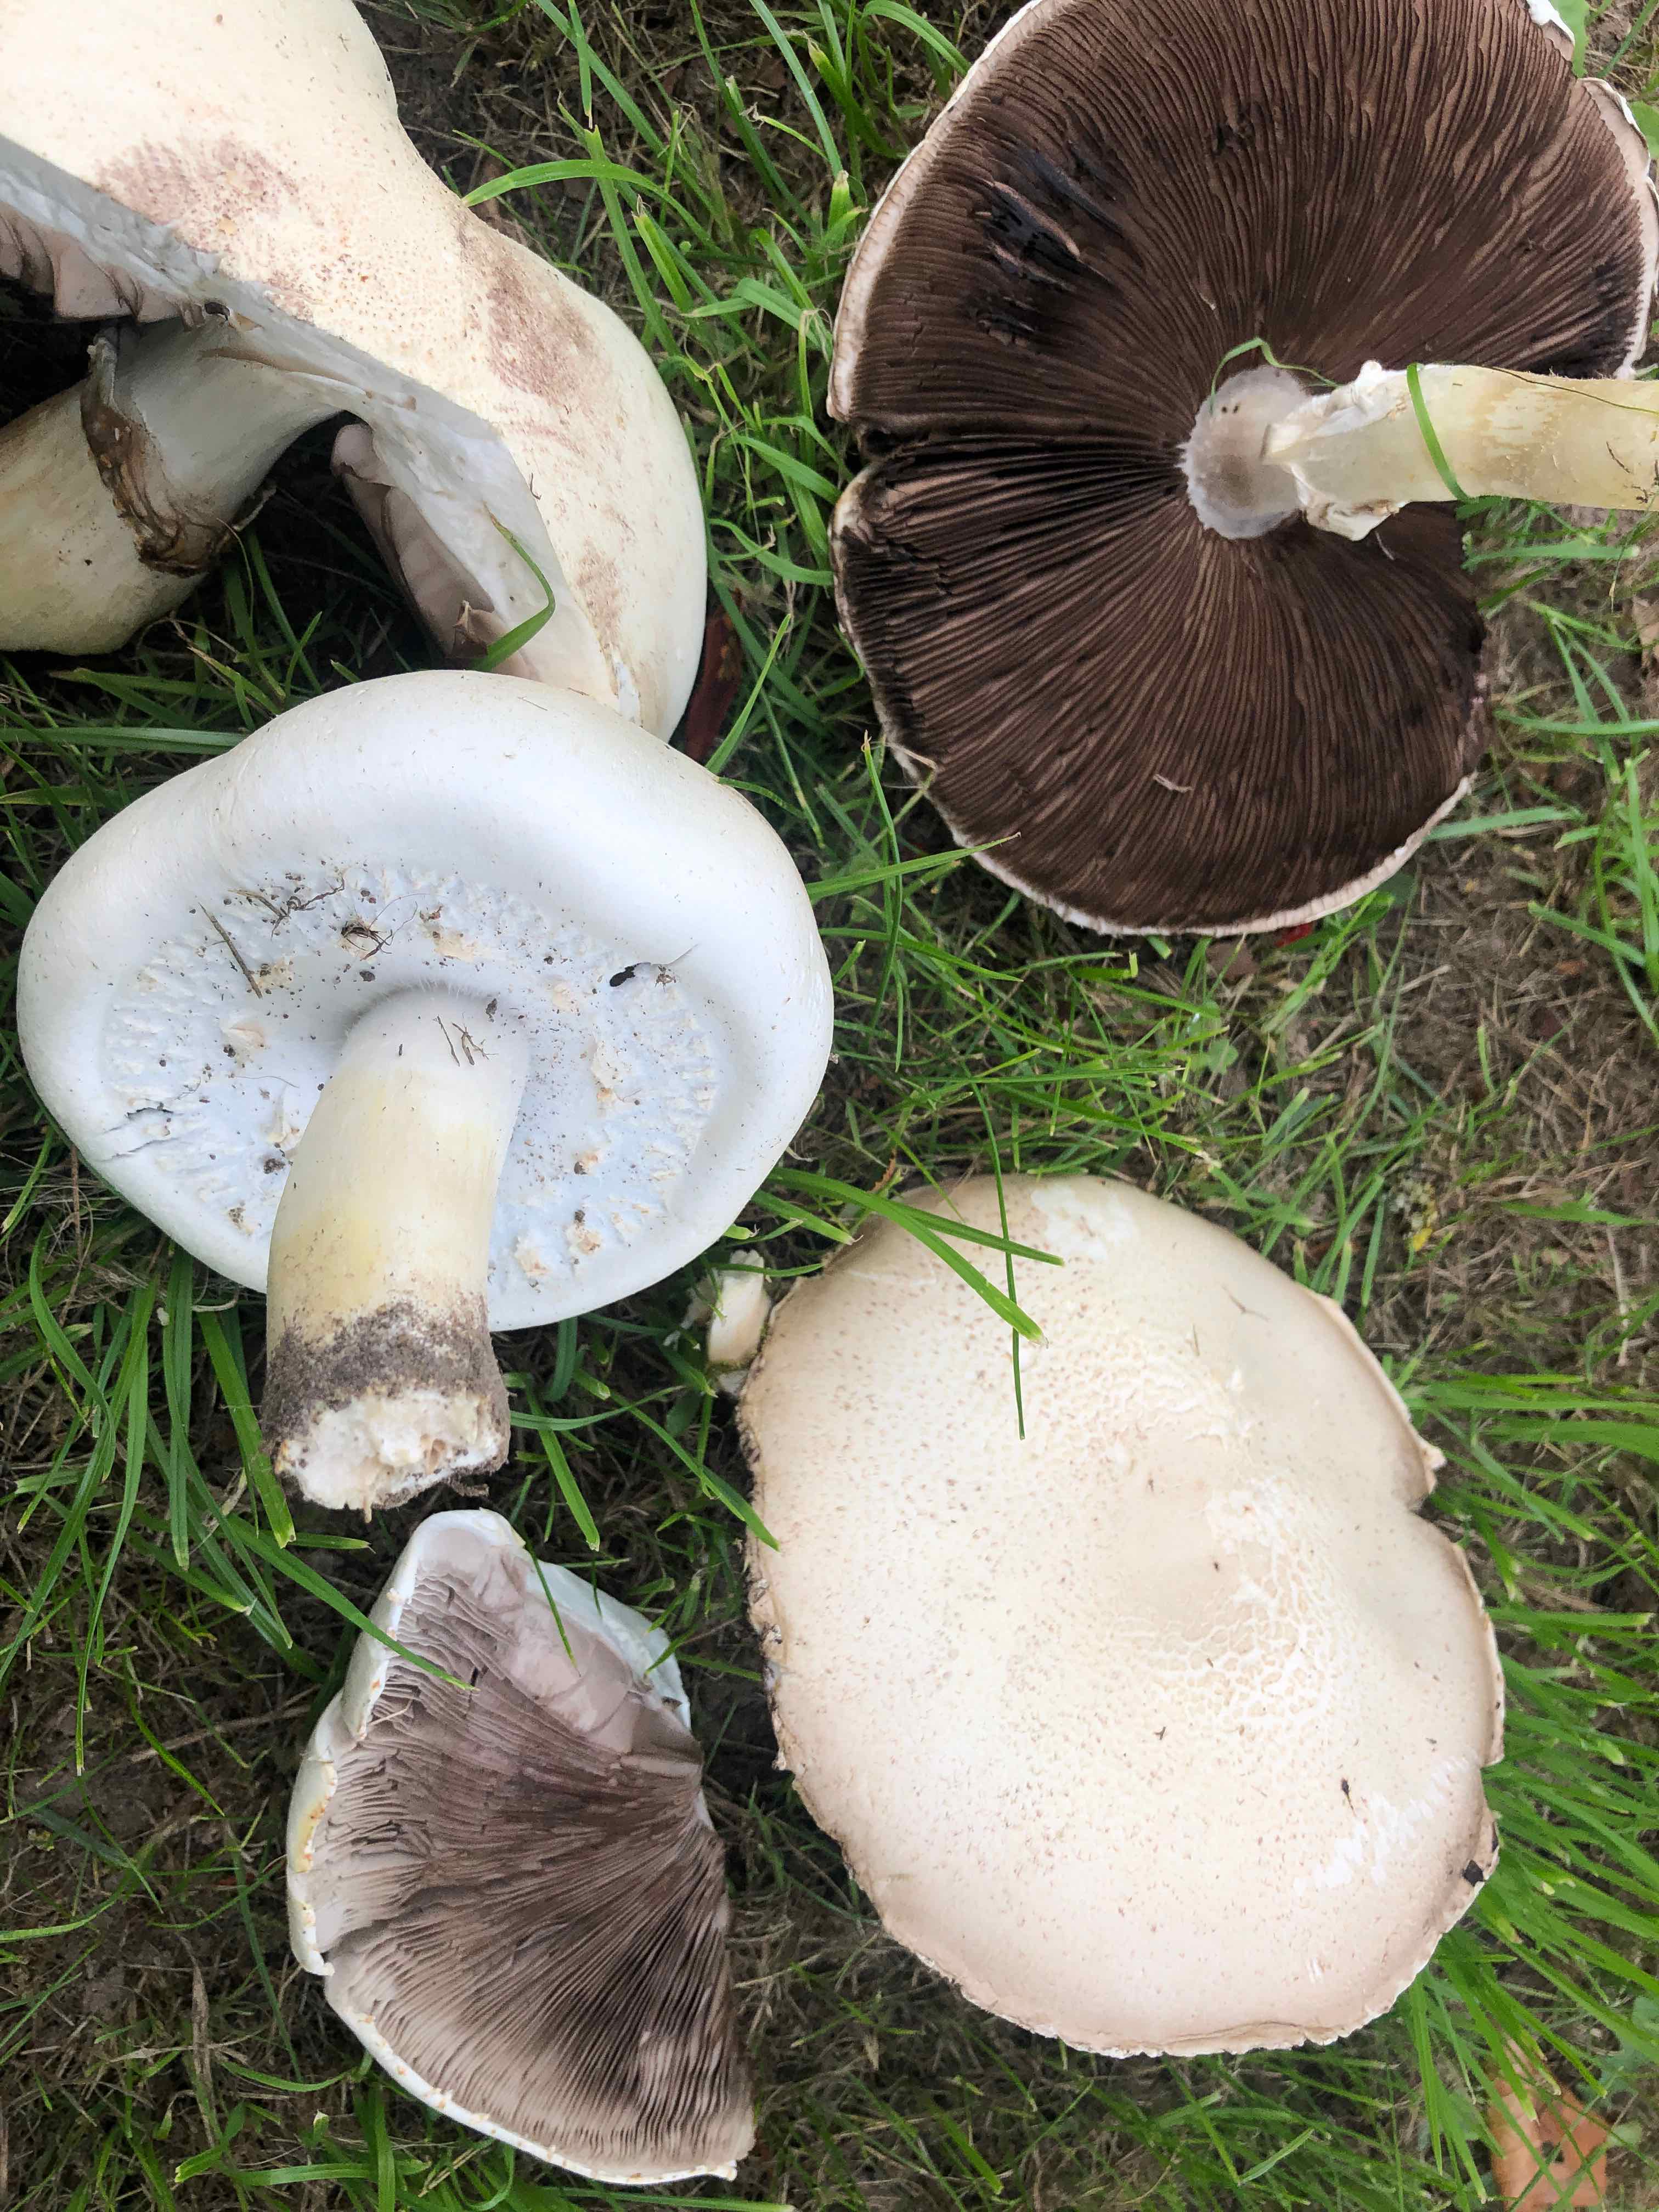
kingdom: Fungi
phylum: Basidiomycota
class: Agaricomycetes
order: Agaricales
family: Agaricaceae
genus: Agaricus
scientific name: Agaricus
